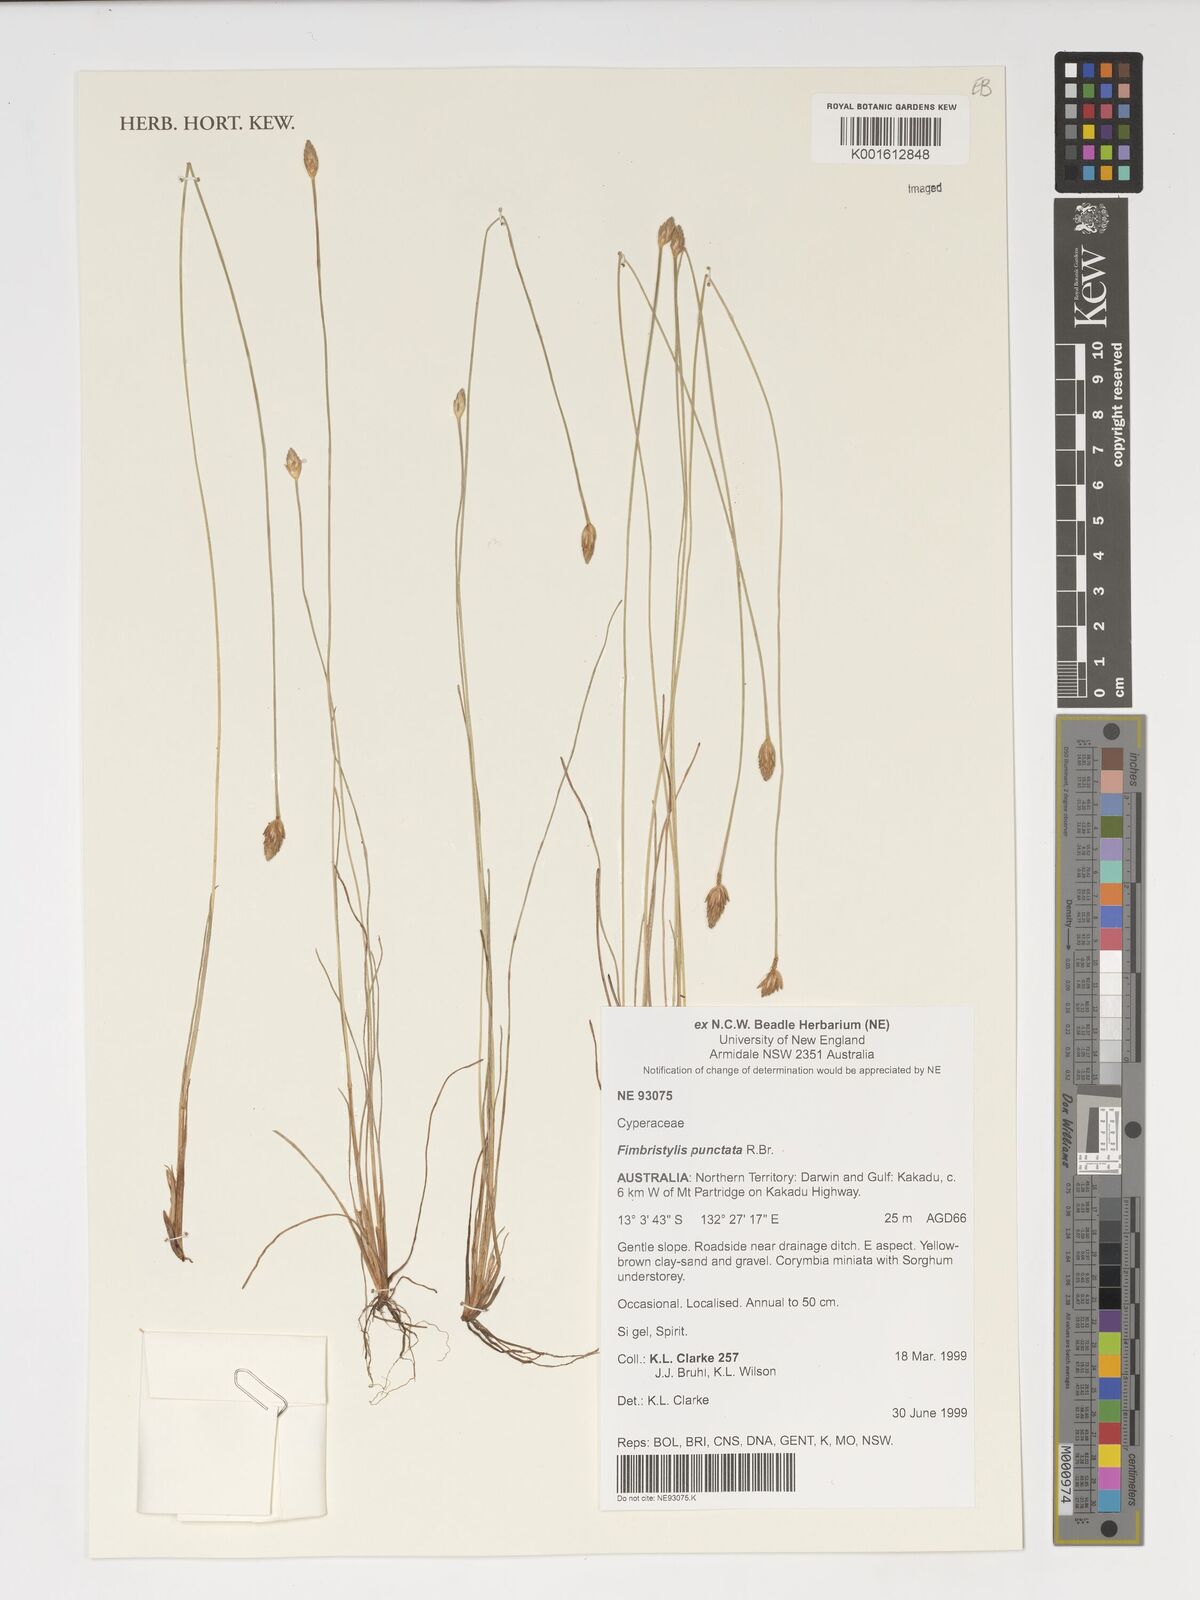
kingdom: Plantae
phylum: Tracheophyta
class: Liliopsida
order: Poales
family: Cyperaceae
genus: Fimbristylis
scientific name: Fimbristylis punctata
